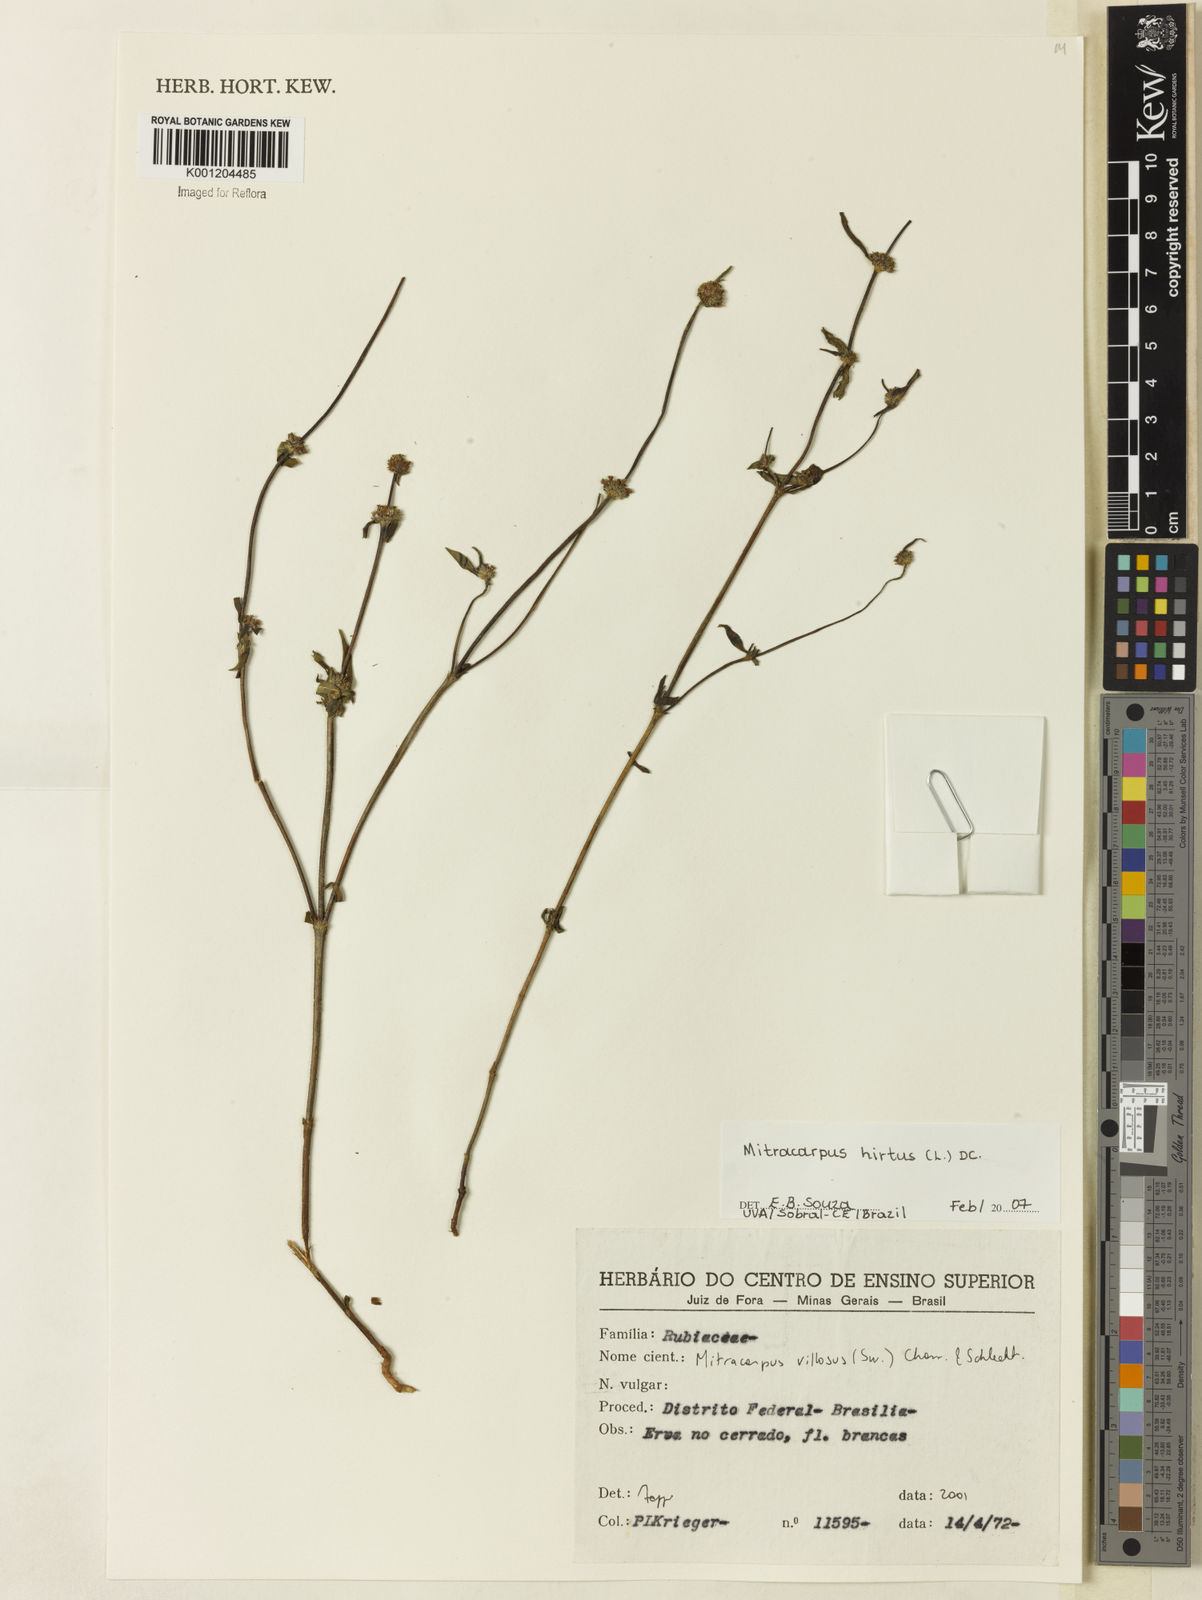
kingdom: Plantae
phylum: Tracheophyta
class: Magnoliopsida
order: Gentianales
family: Rubiaceae
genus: Mitracarpus
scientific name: Mitracarpus hirtus
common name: Tropical girdlepod
